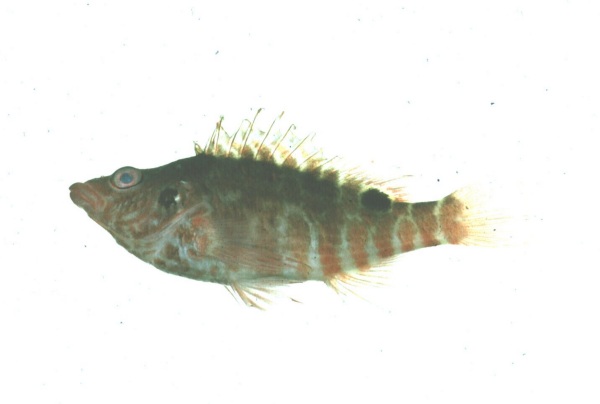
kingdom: Animalia
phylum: Chordata
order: Perciformes
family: Cirrhitidae
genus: Amblycirrhitus
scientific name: Amblycirrhitus bimacula
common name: Twinspot hawkfish
